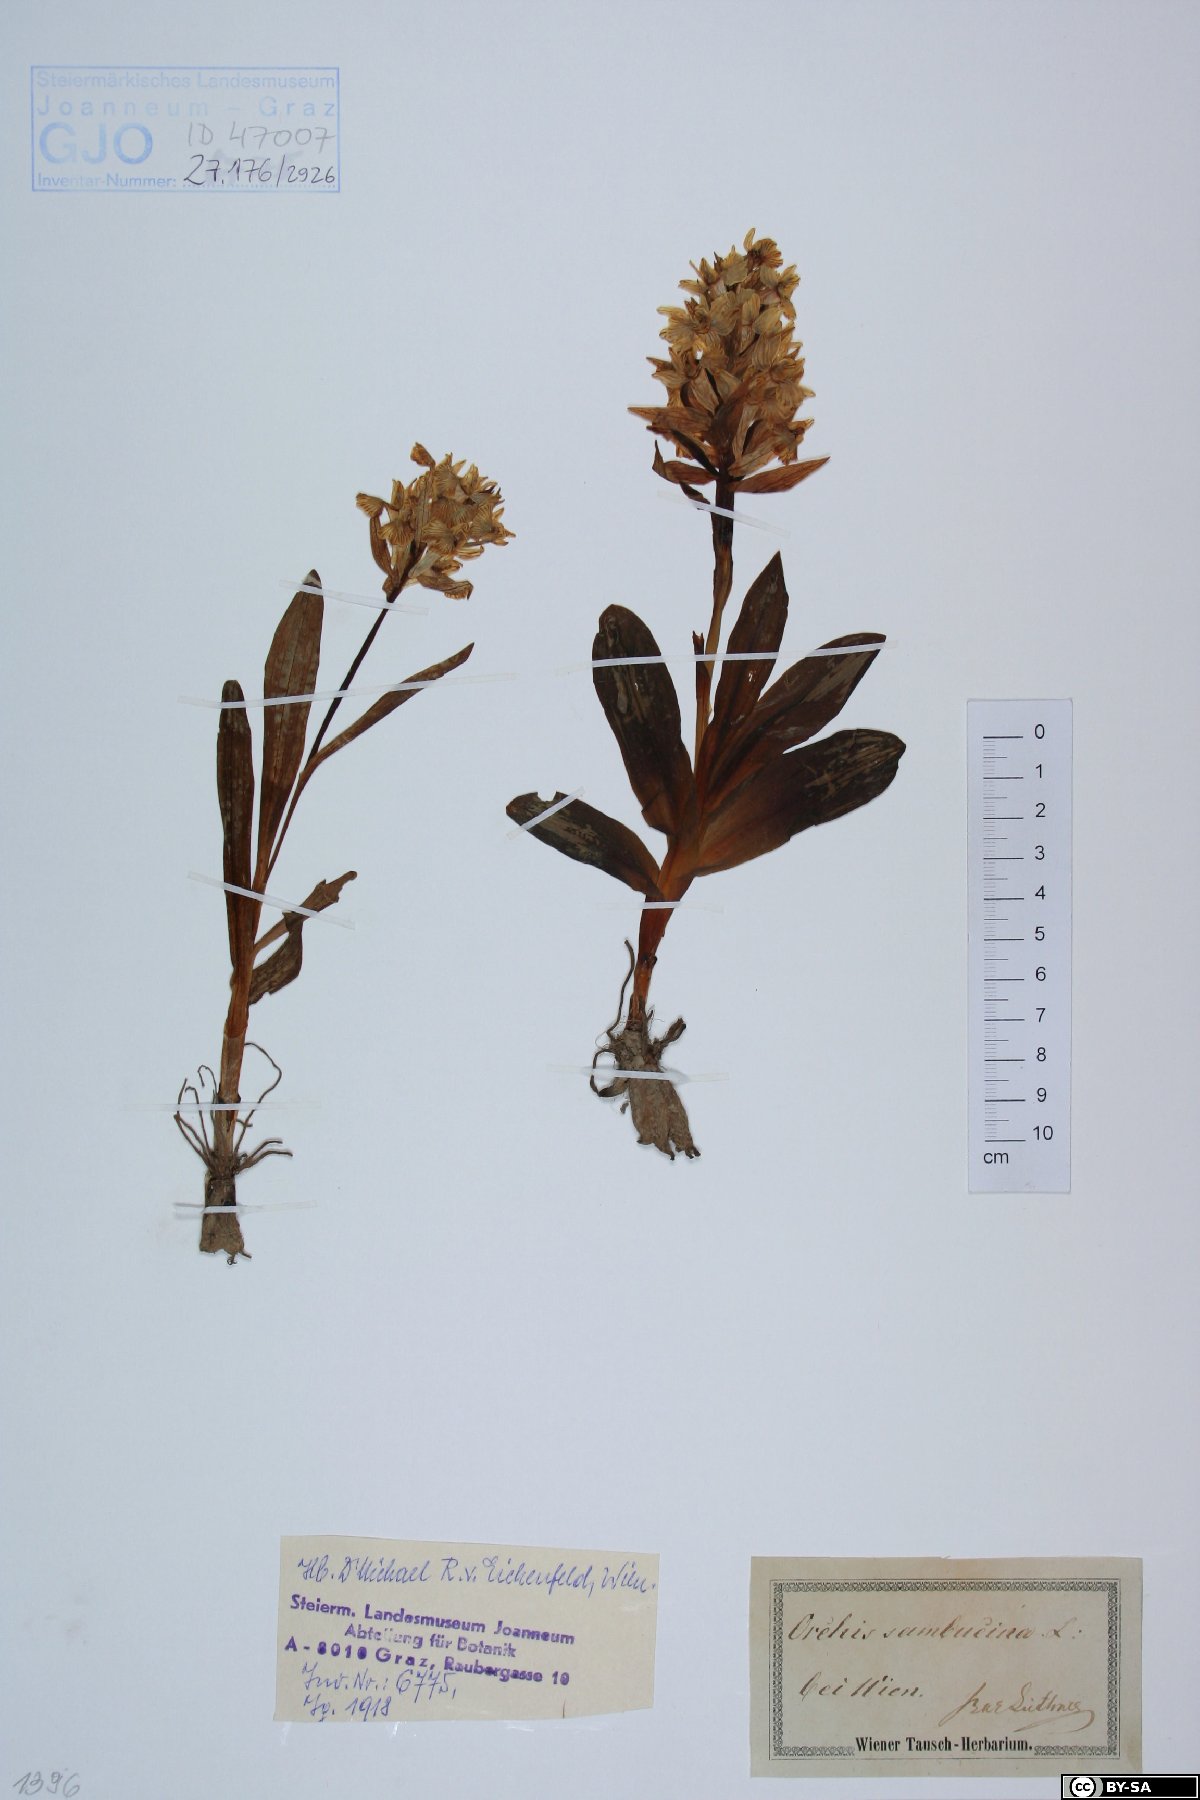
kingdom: Plantae
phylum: Tracheophyta
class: Liliopsida
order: Asparagales
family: Orchidaceae
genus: Dactylorhiza
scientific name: Dactylorhiza sambucina
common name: Elder-flowered orchid
